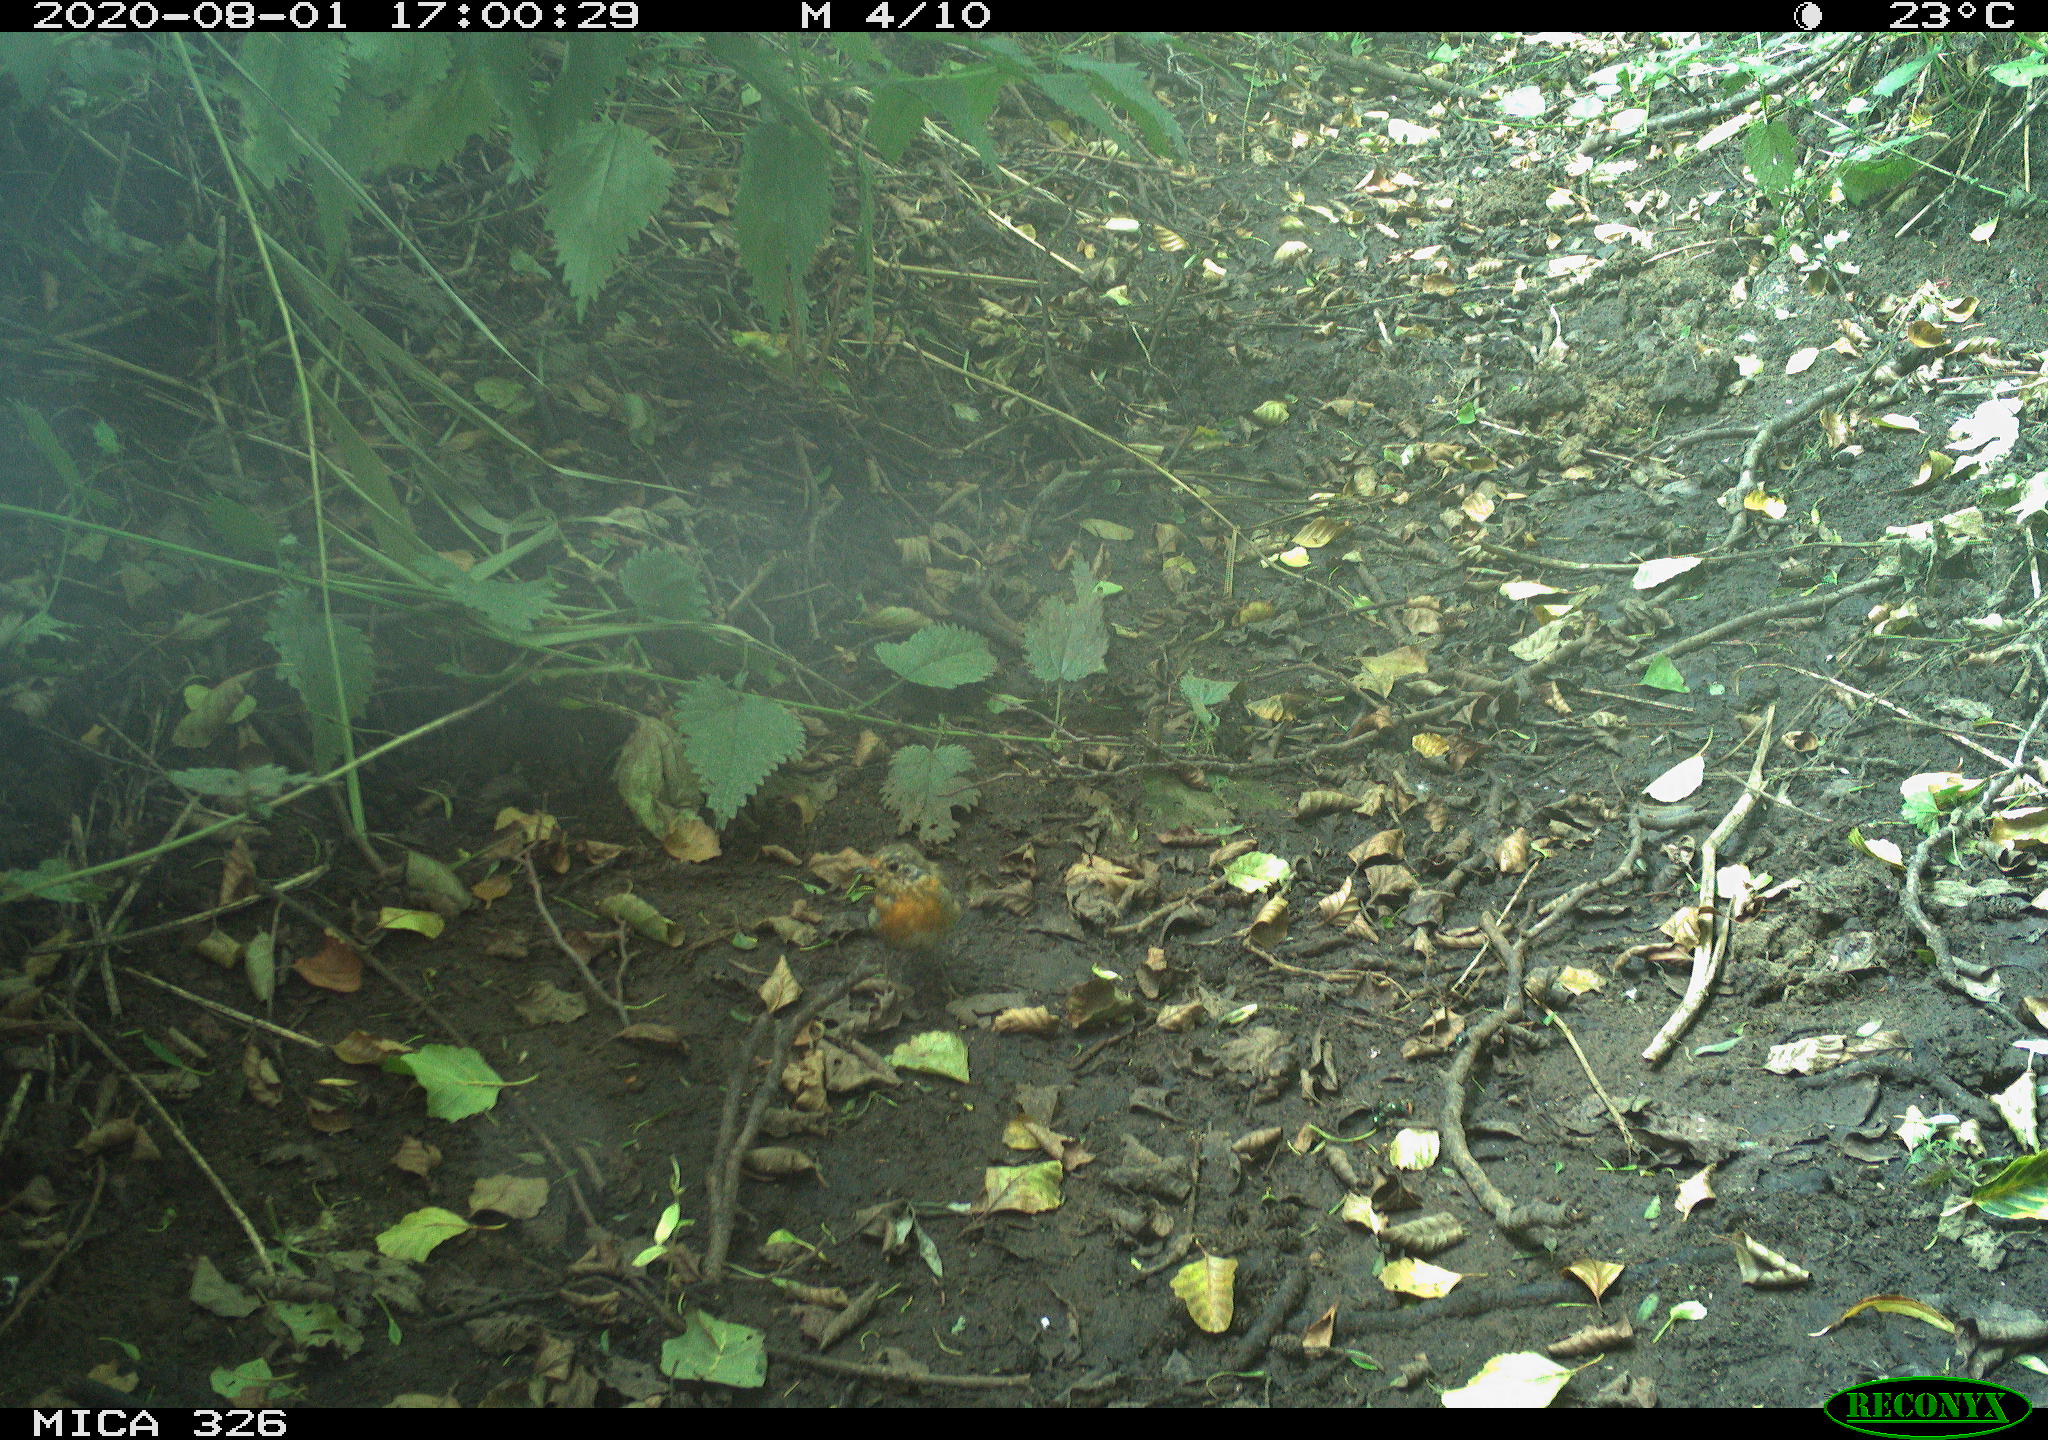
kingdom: Animalia
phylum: Chordata
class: Aves
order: Passeriformes
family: Muscicapidae
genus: Erithacus
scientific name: Erithacus rubecula
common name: European robin
